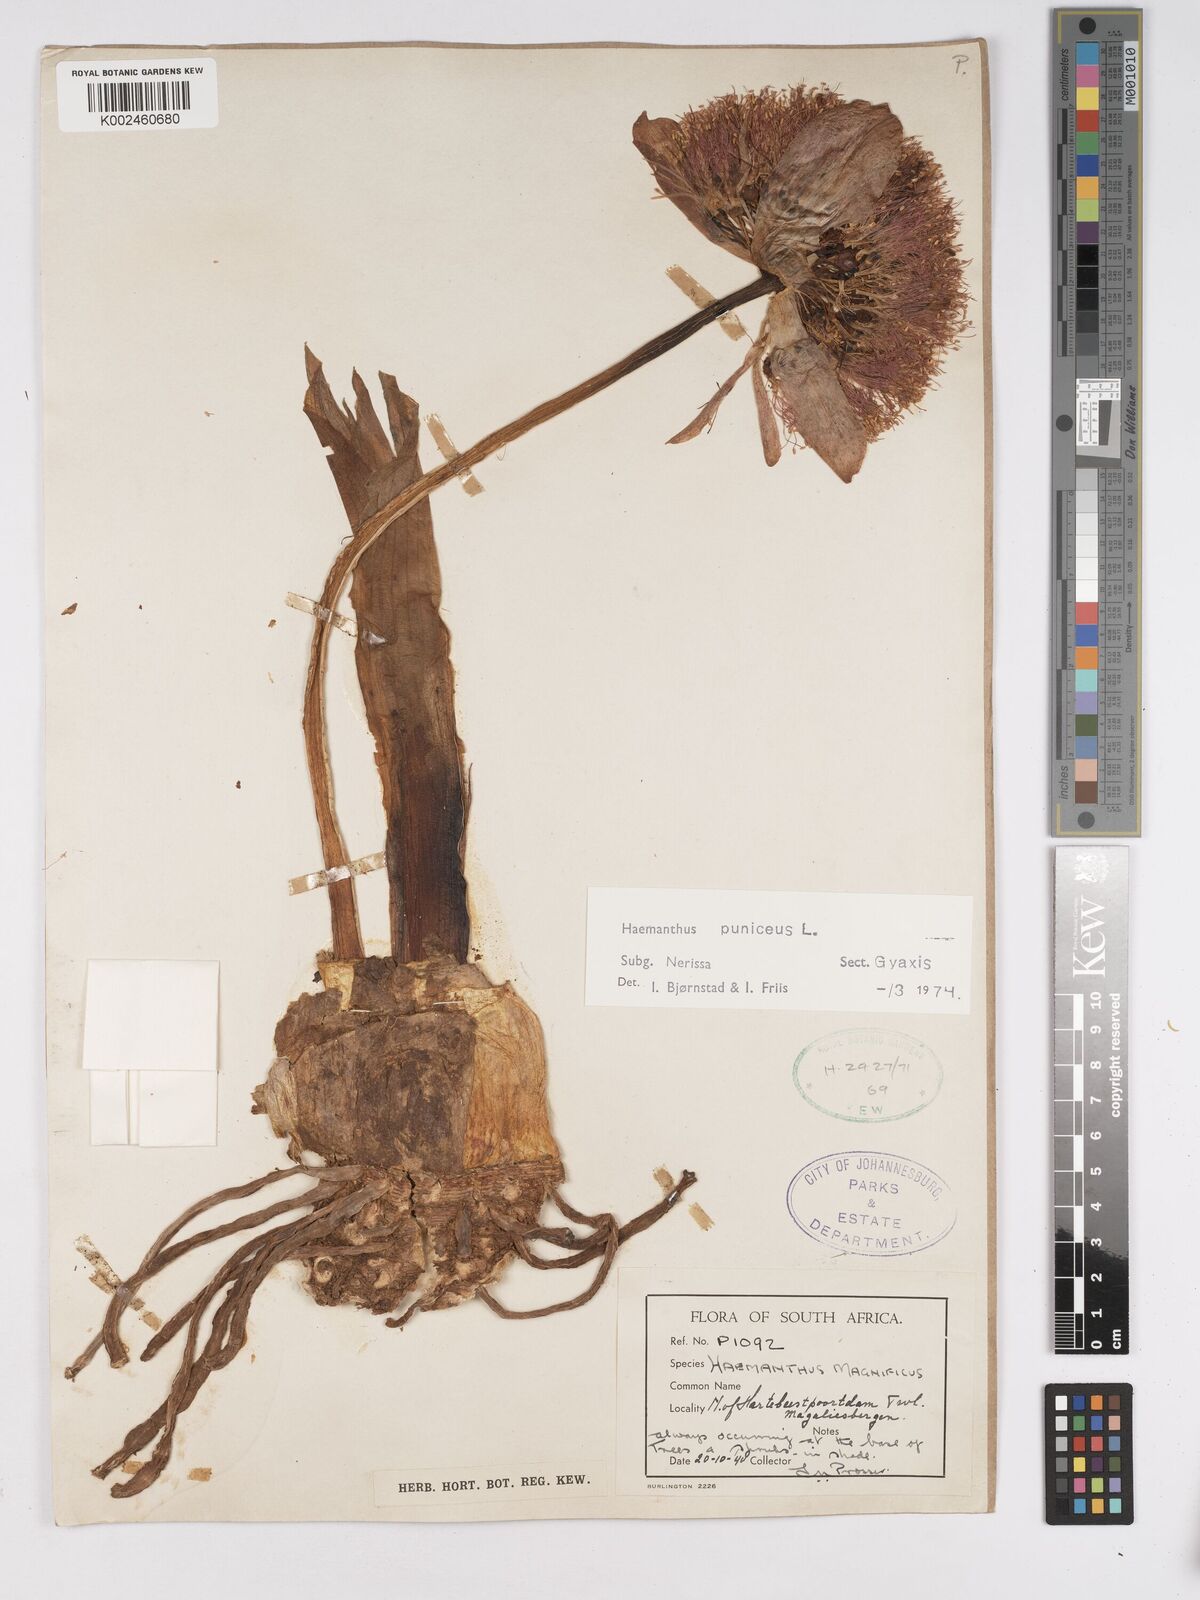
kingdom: Plantae
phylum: Tracheophyta
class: Liliopsida
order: Asparagales
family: Amaryllidaceae
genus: Scadoxus
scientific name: Scadoxus puniceus
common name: Royal-paintbrush
